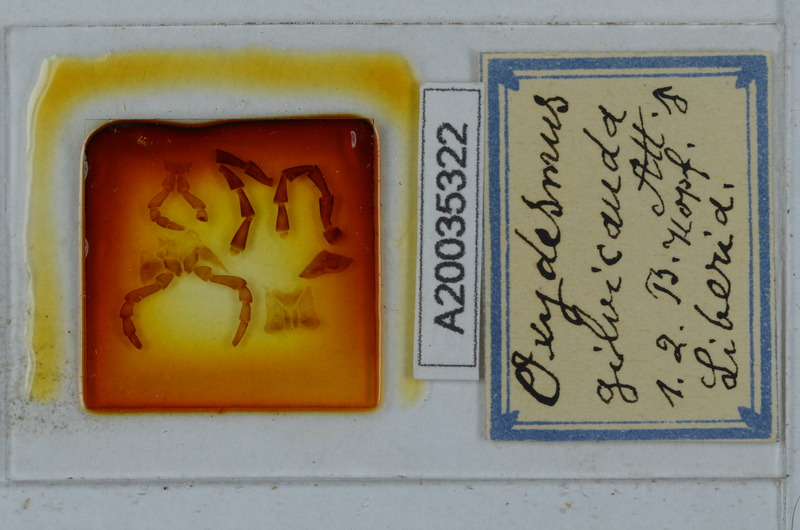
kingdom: Animalia
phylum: Arthropoda
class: Diplopoda
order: Polydesmida
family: Oxydesmidae
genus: Corominus
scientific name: Corominus gnorimus
